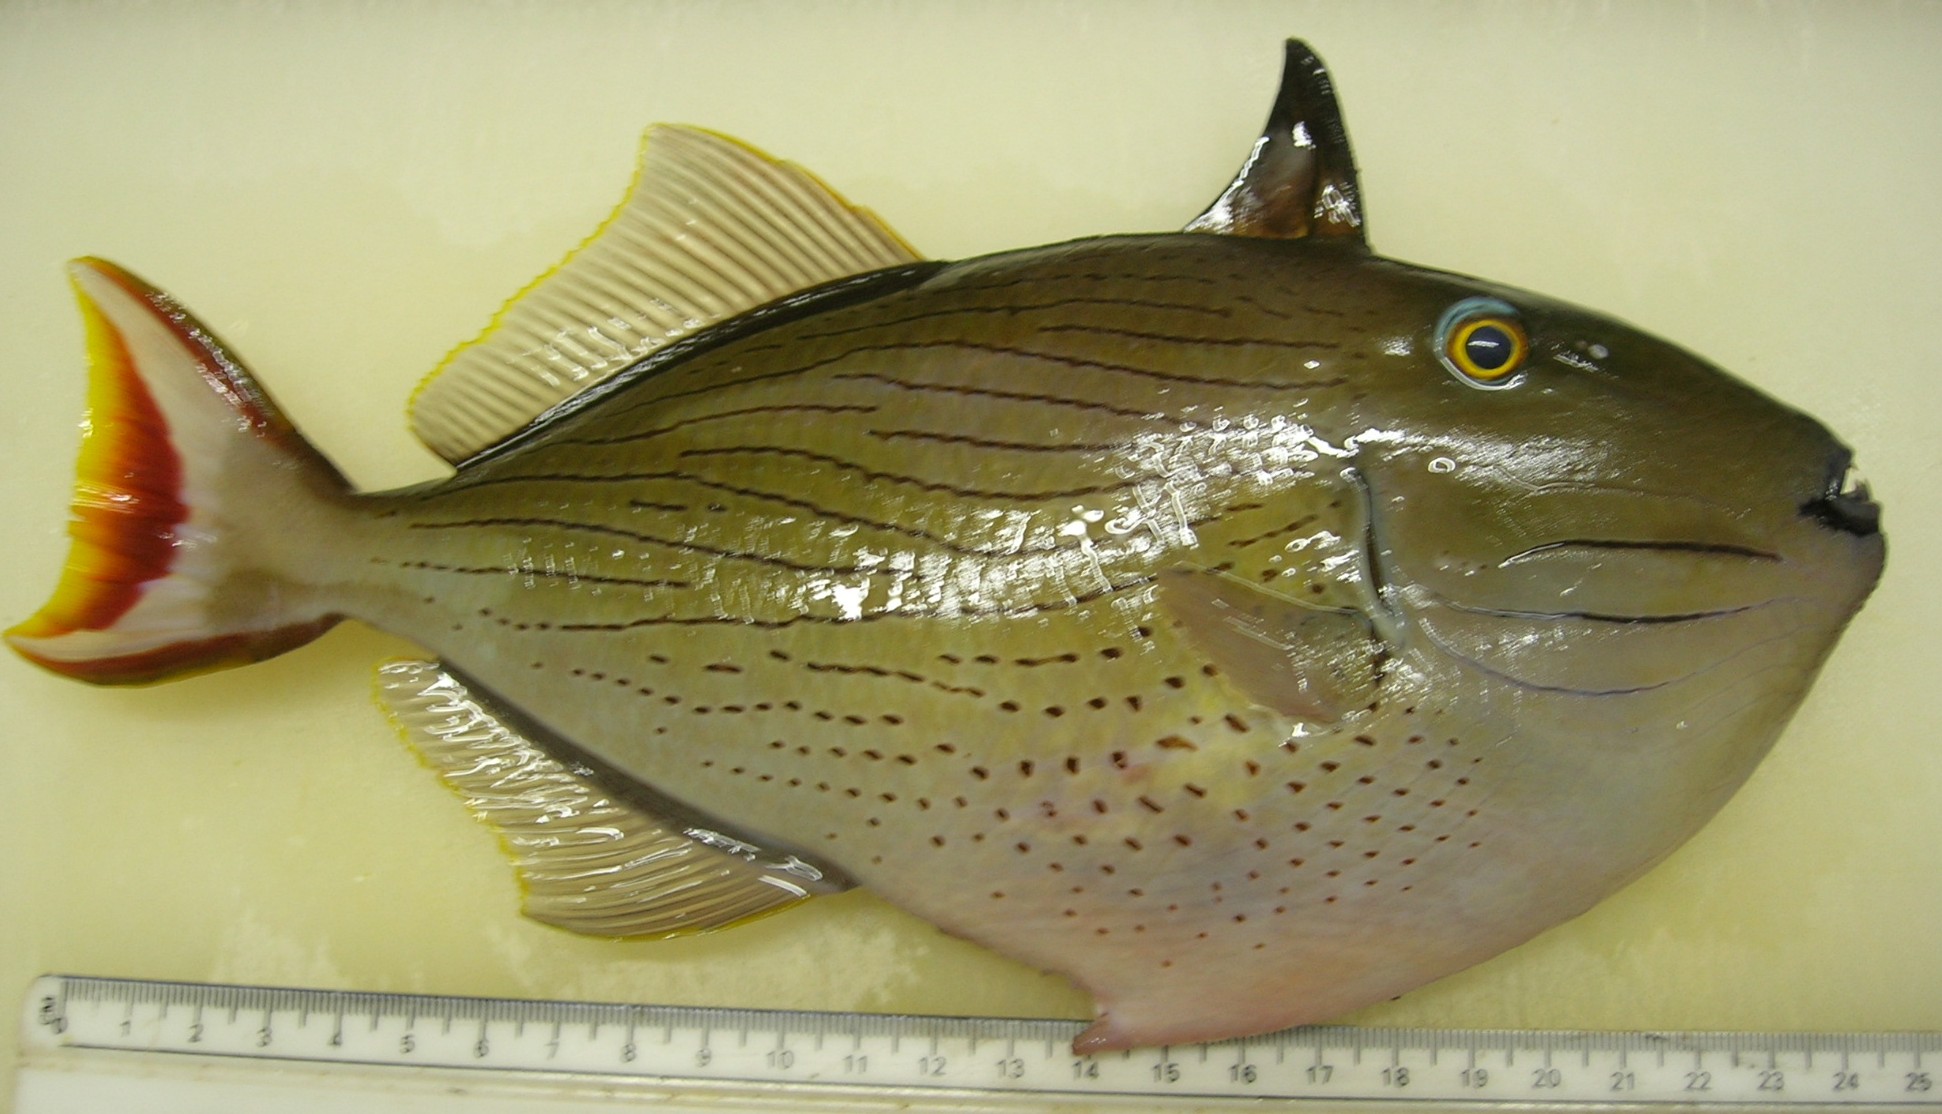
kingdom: Animalia
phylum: Chordata
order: Tetraodontiformes
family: Balistidae
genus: Xanthichthys
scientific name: Xanthichthys lineopunctatus
